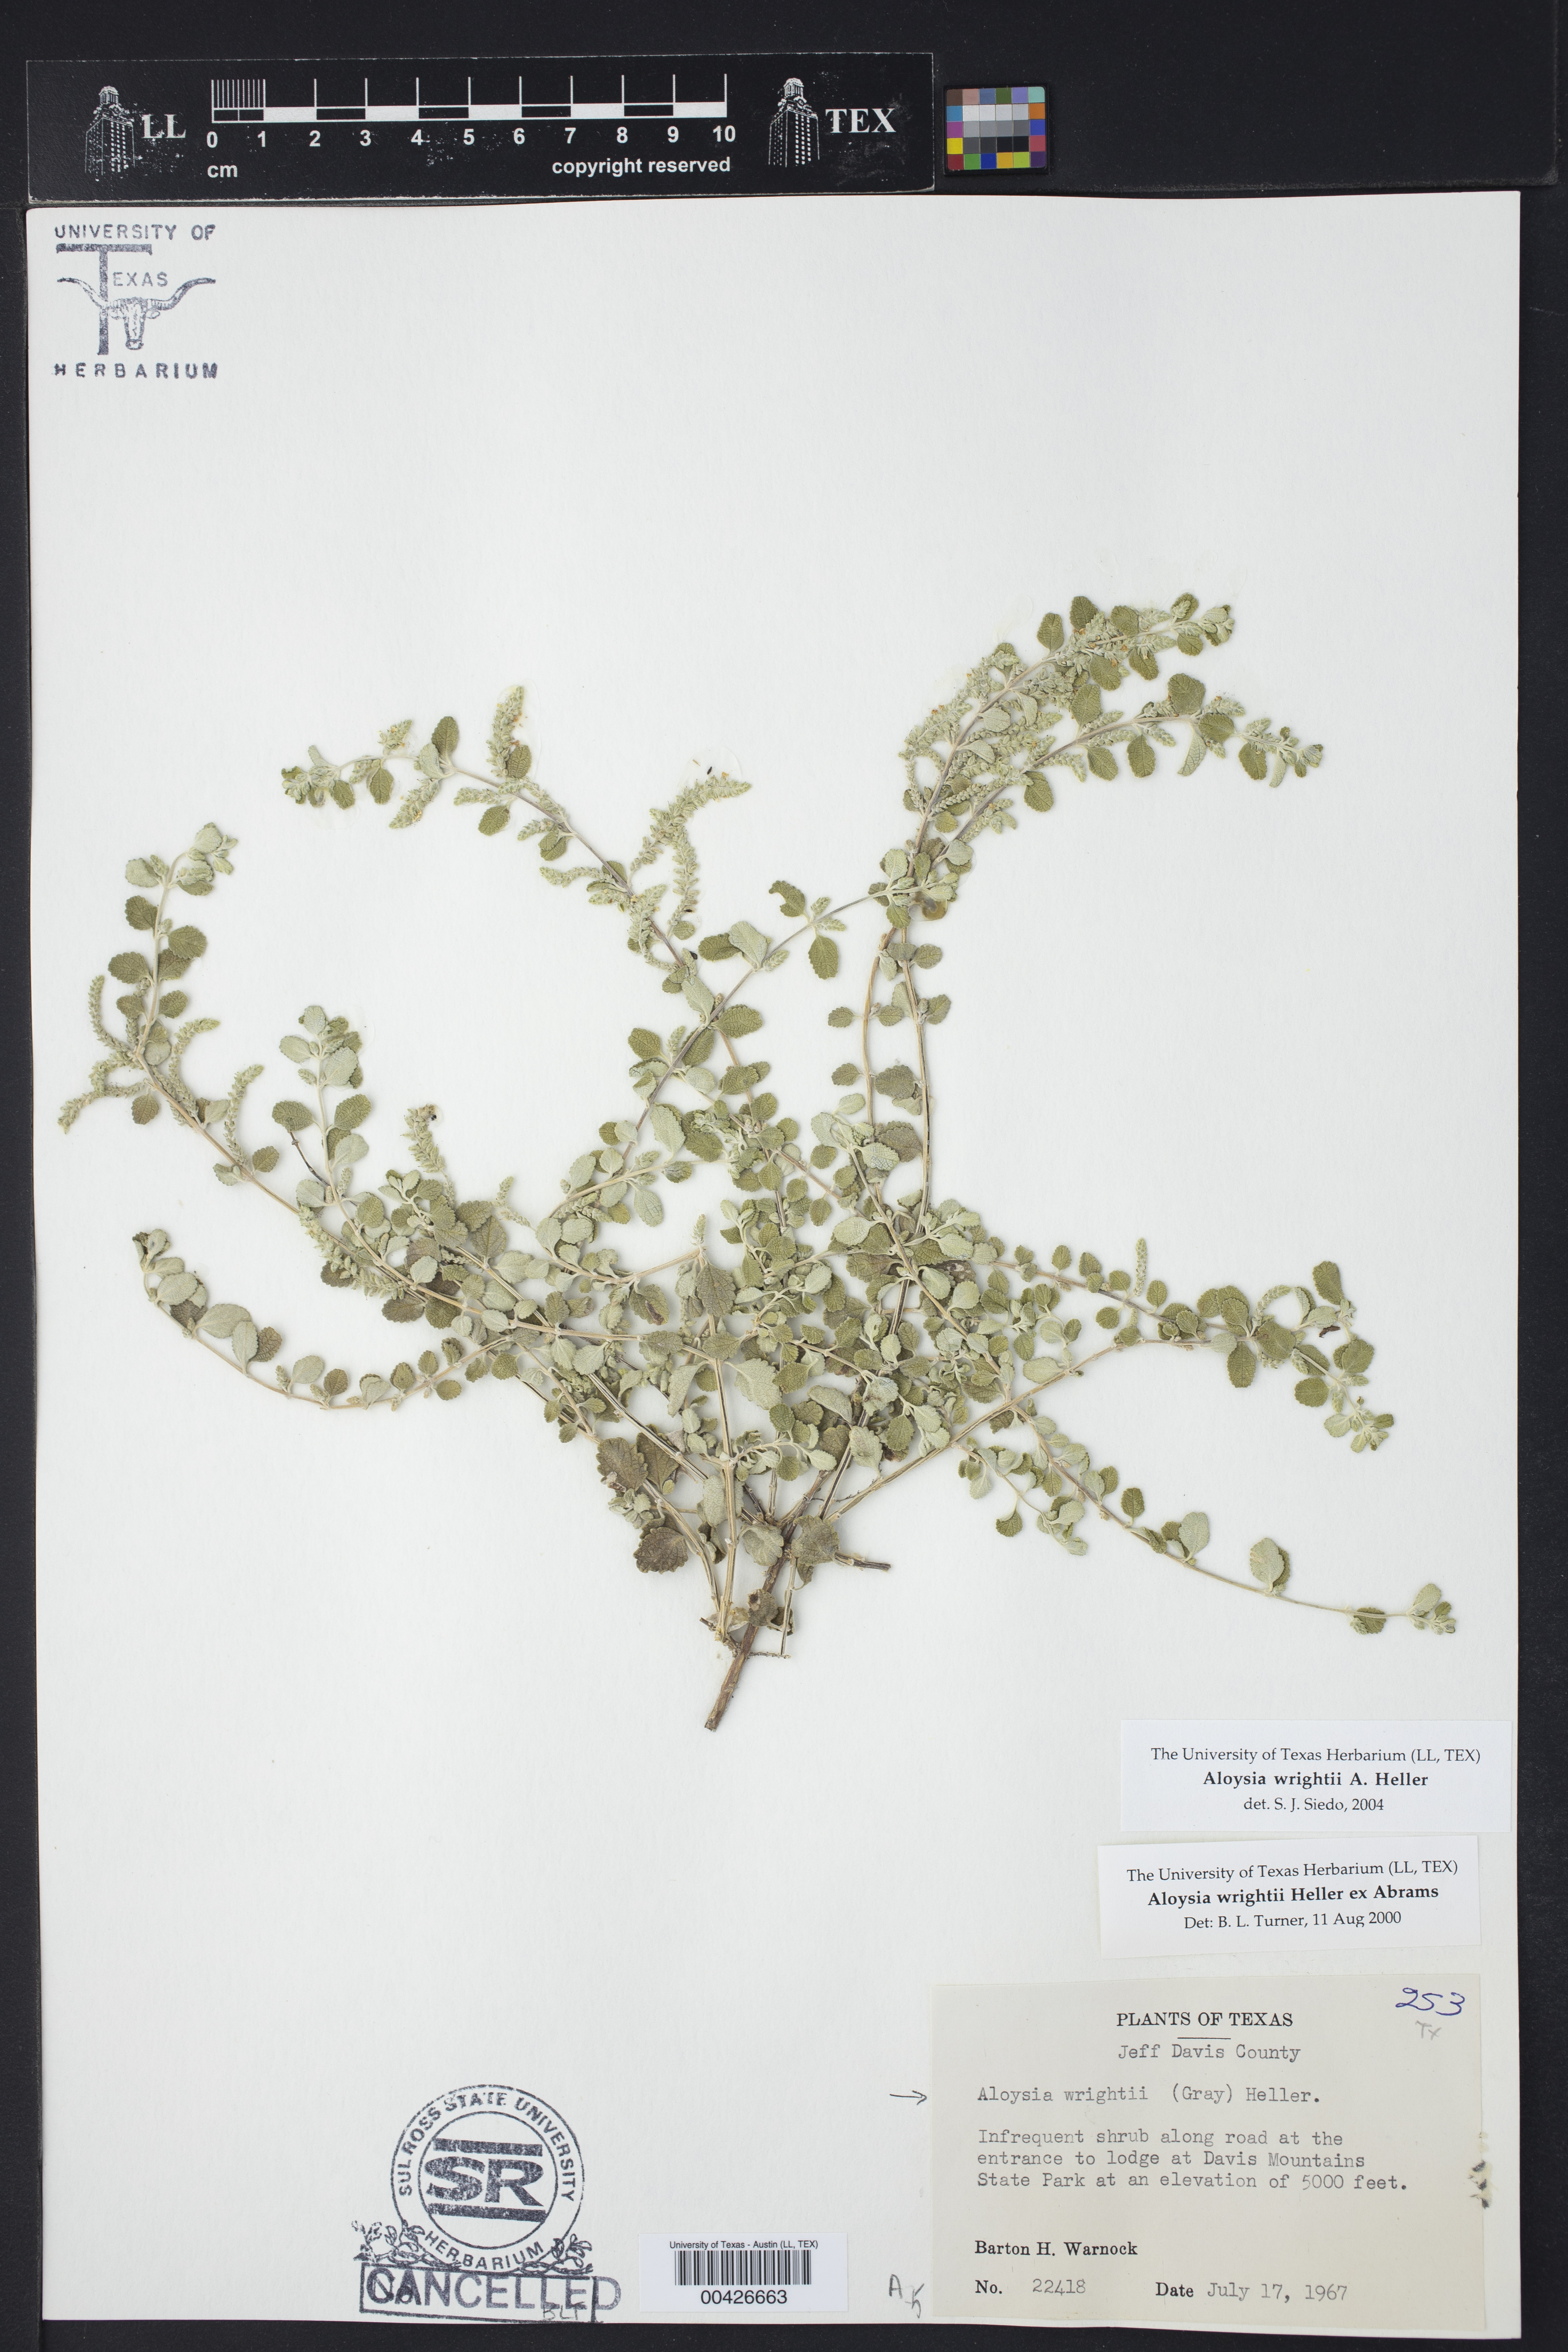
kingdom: Plantae
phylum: Tracheophyta
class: Magnoliopsida
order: Lamiales
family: Verbenaceae
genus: Aloysia
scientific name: Aloysia wrightii
